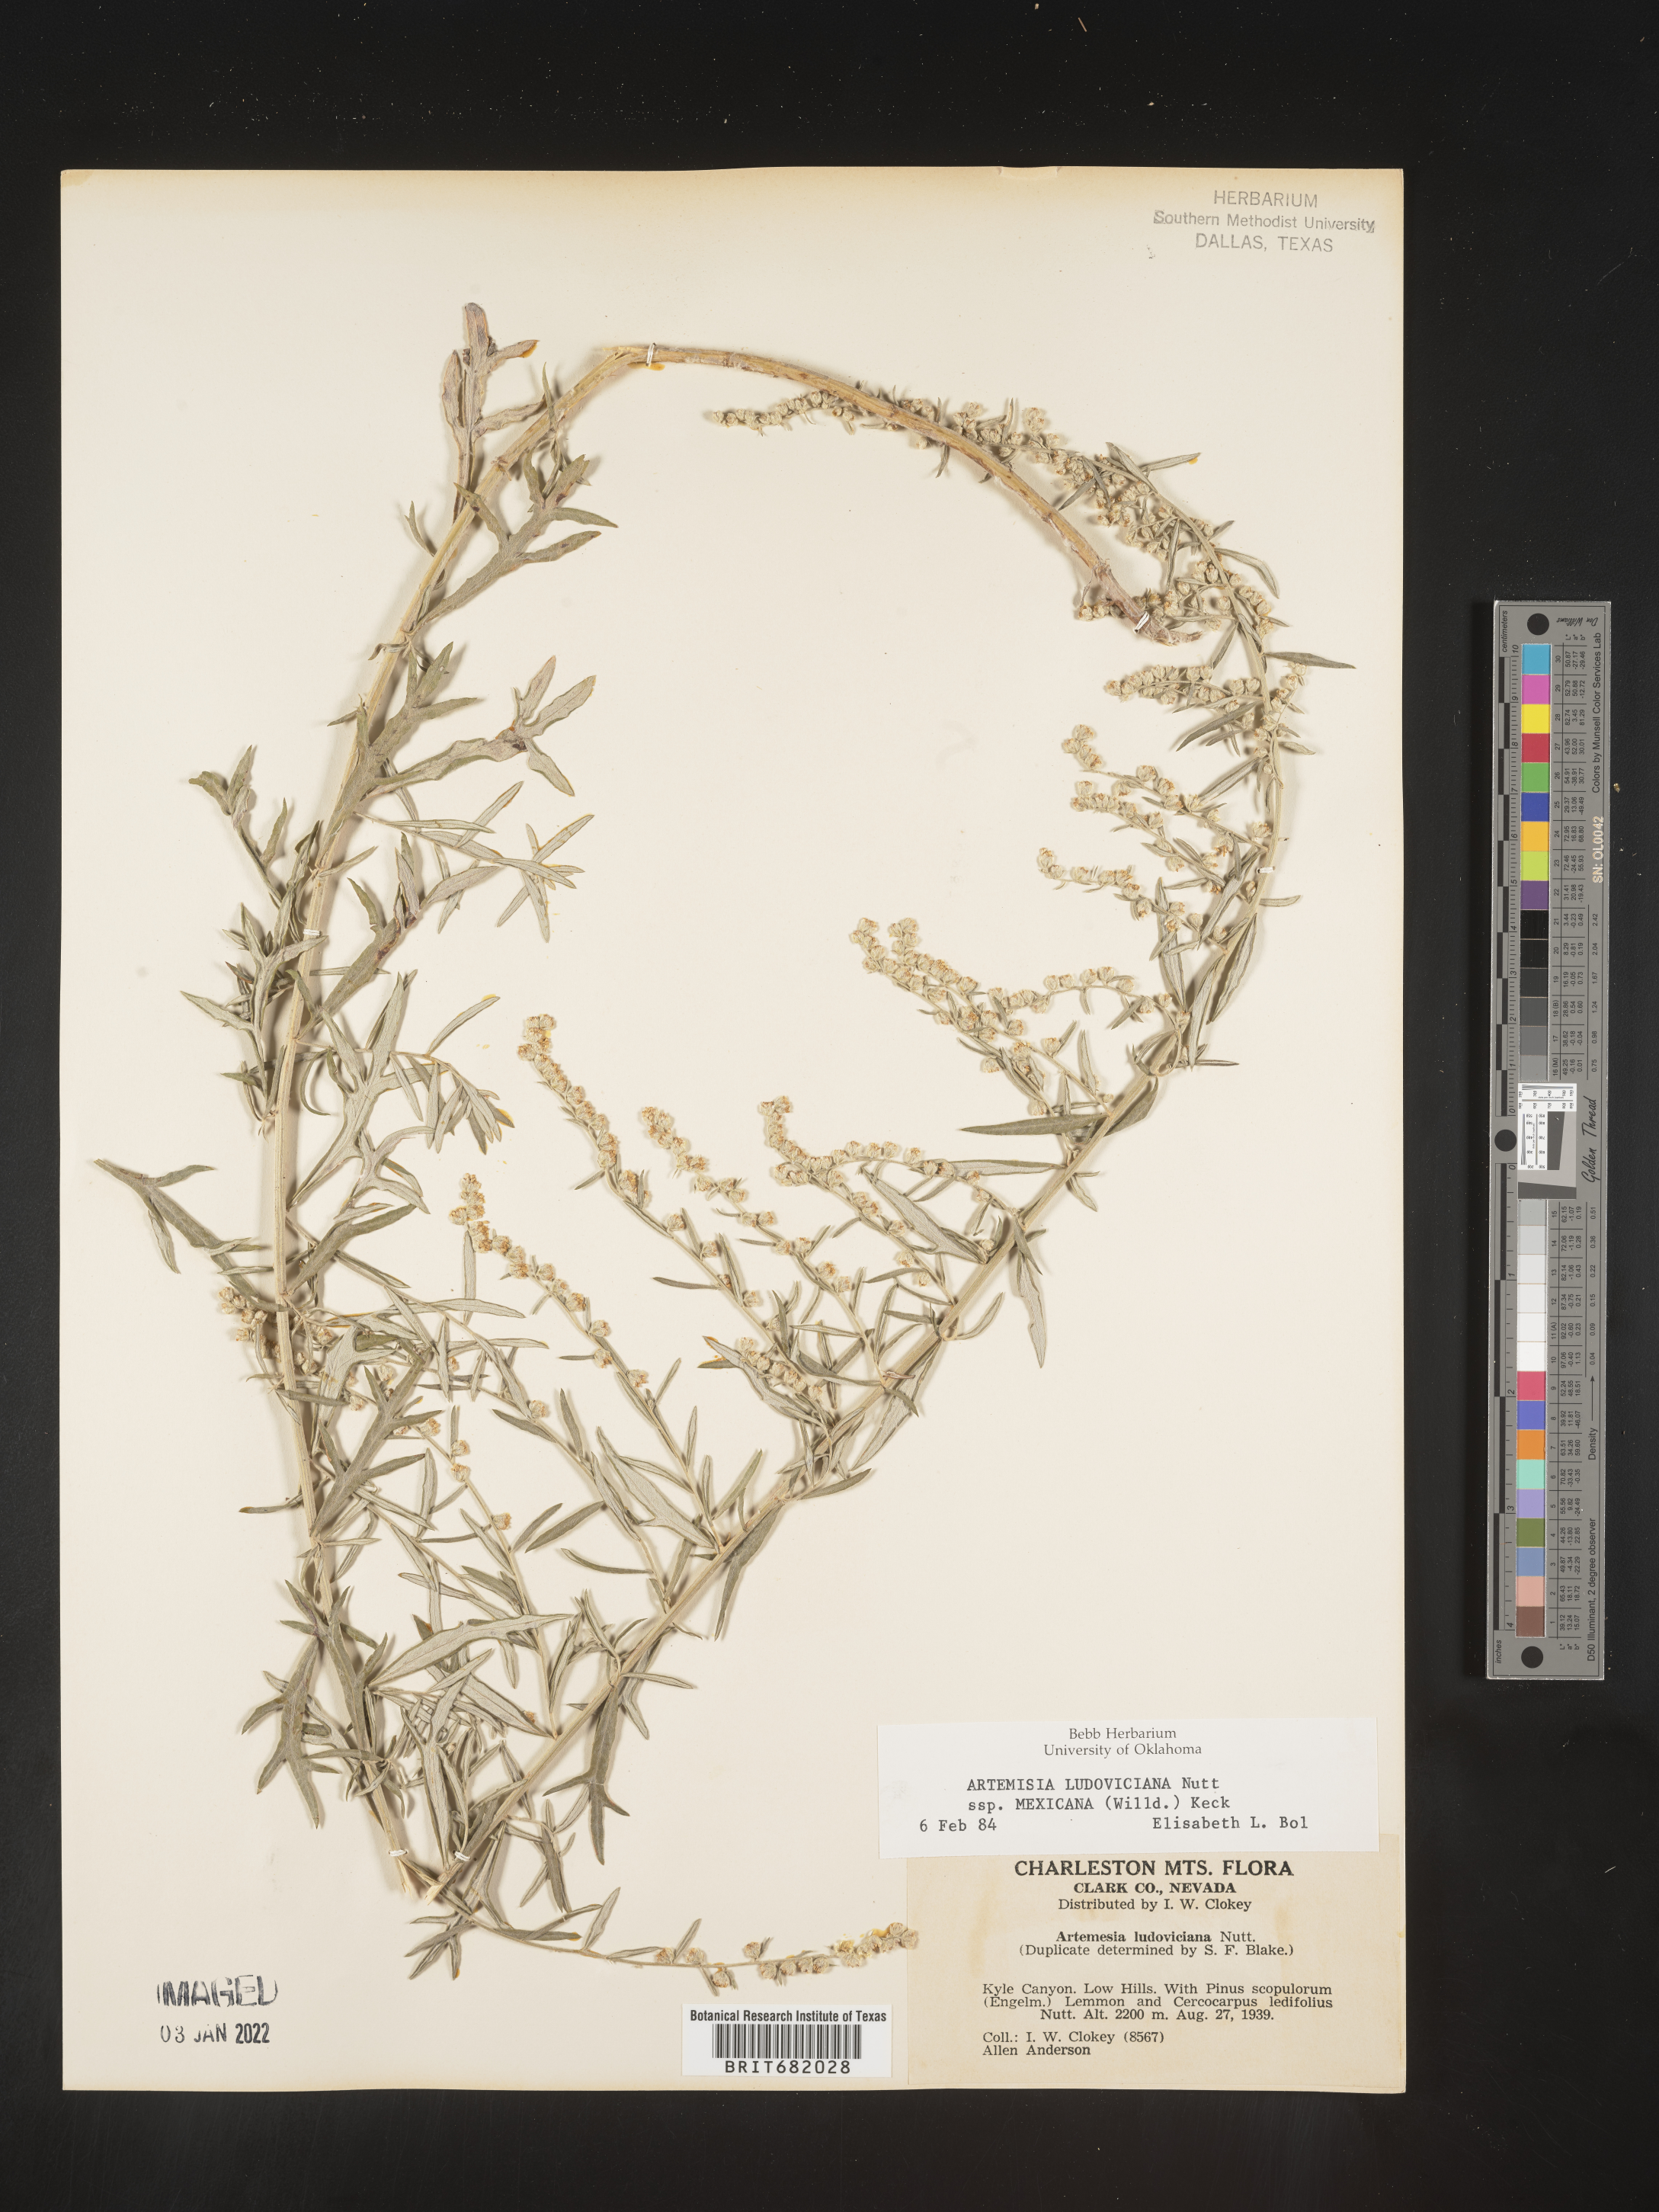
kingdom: Plantae
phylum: Tracheophyta
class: Magnoliopsida
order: Asterales
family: Asteraceae
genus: Artemisia
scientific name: Artemisia ludoviciana
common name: Western mugwort
